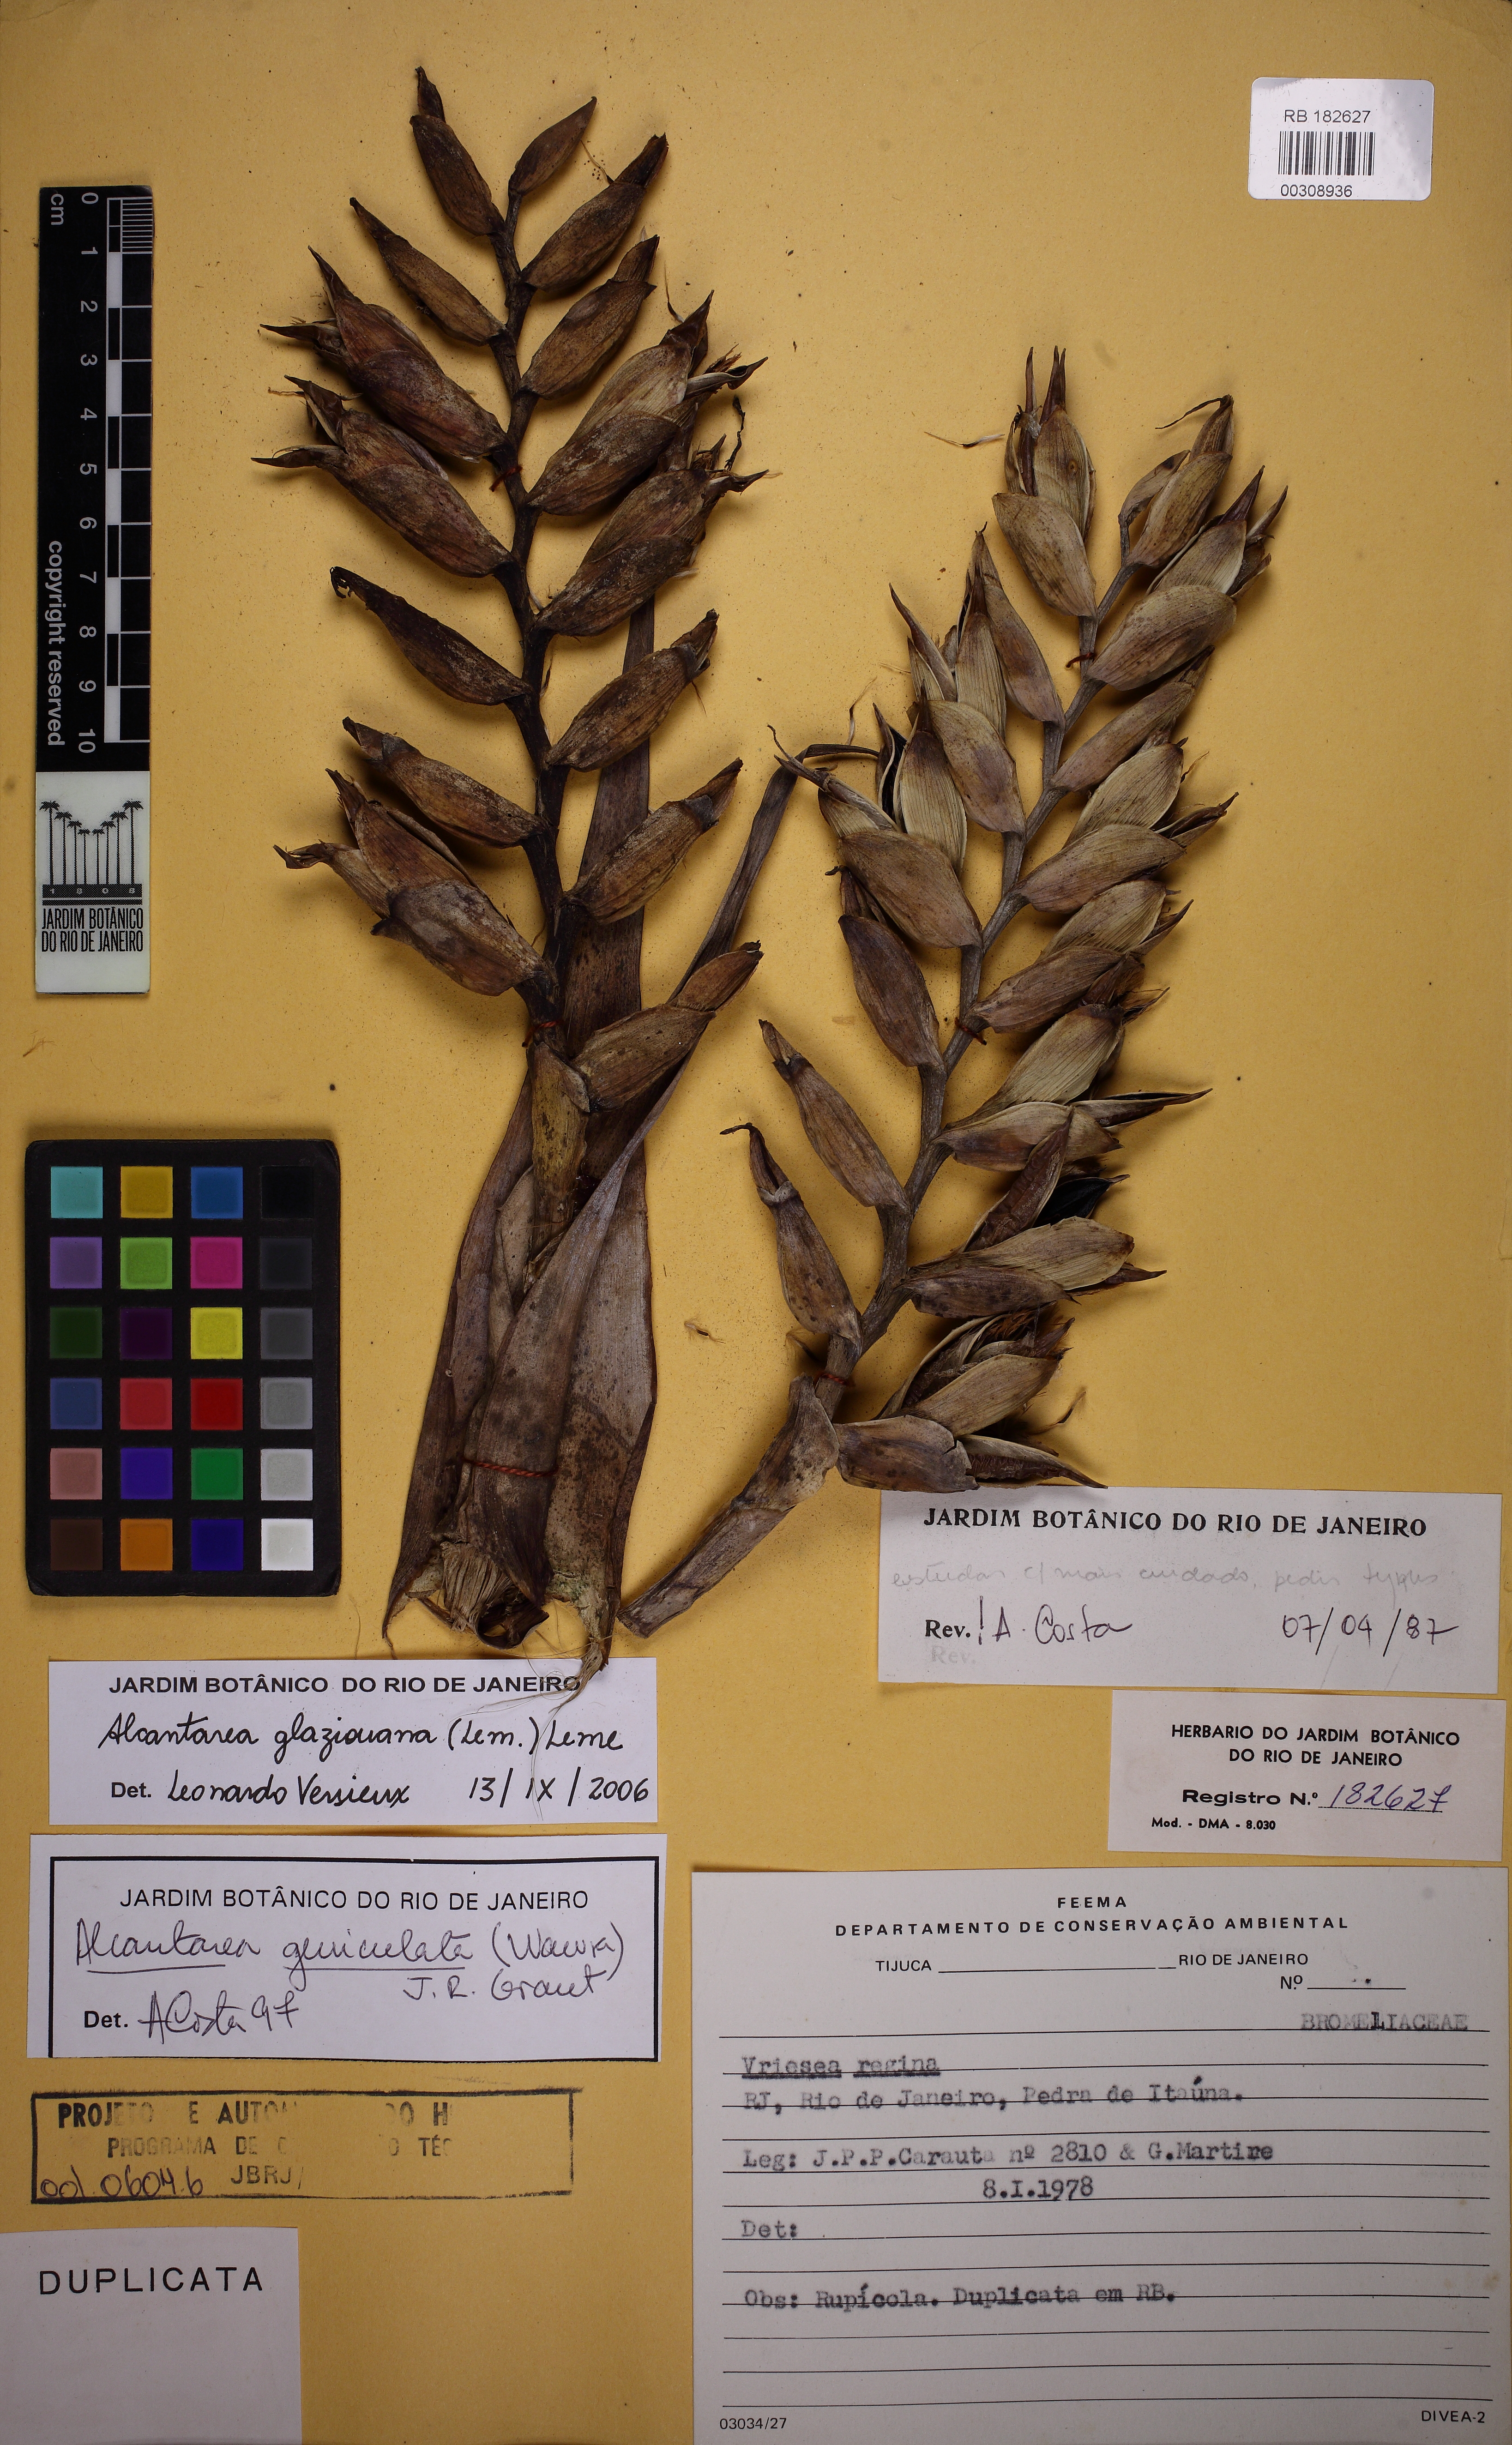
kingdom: Plantae
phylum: Tracheophyta
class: Liliopsida
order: Poales
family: Bromeliaceae
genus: Alcantarea
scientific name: Alcantarea glaziouana
